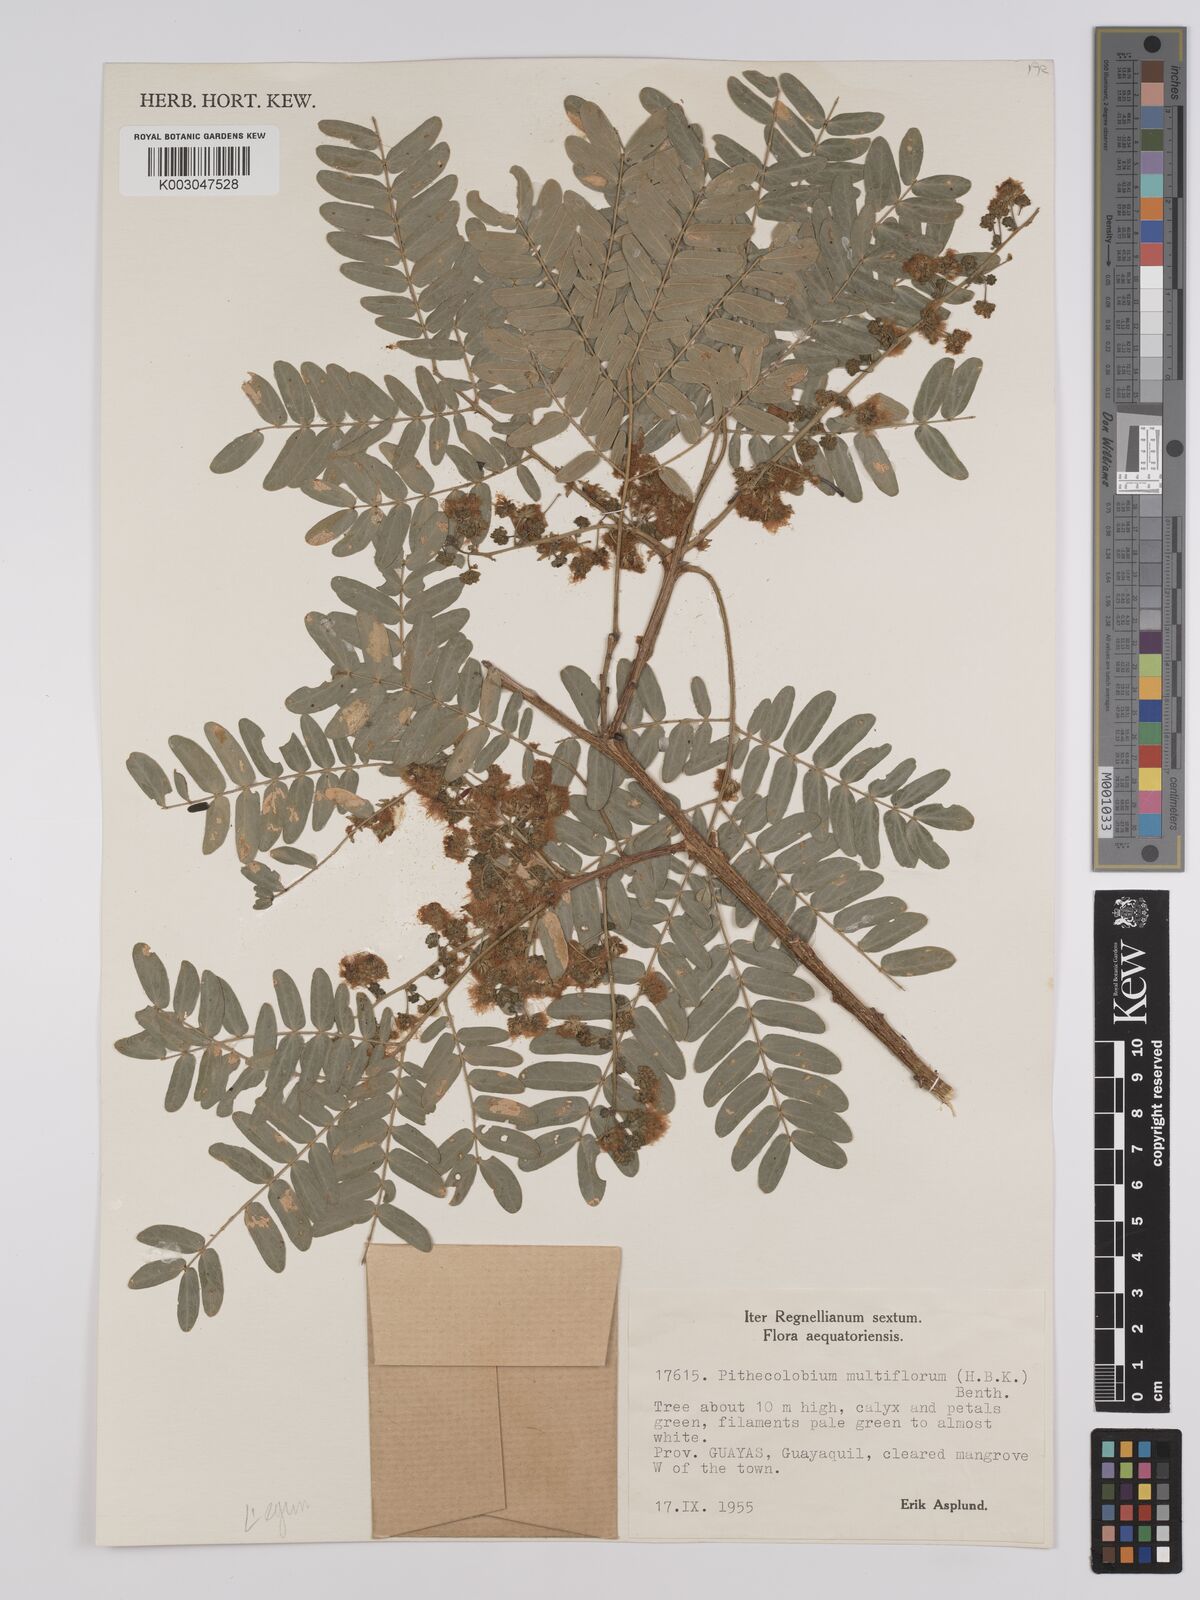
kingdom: Plantae
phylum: Tracheophyta
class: Magnoliopsida
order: Fabales
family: Fabaceae
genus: Albizia
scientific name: Albizia multiflora
